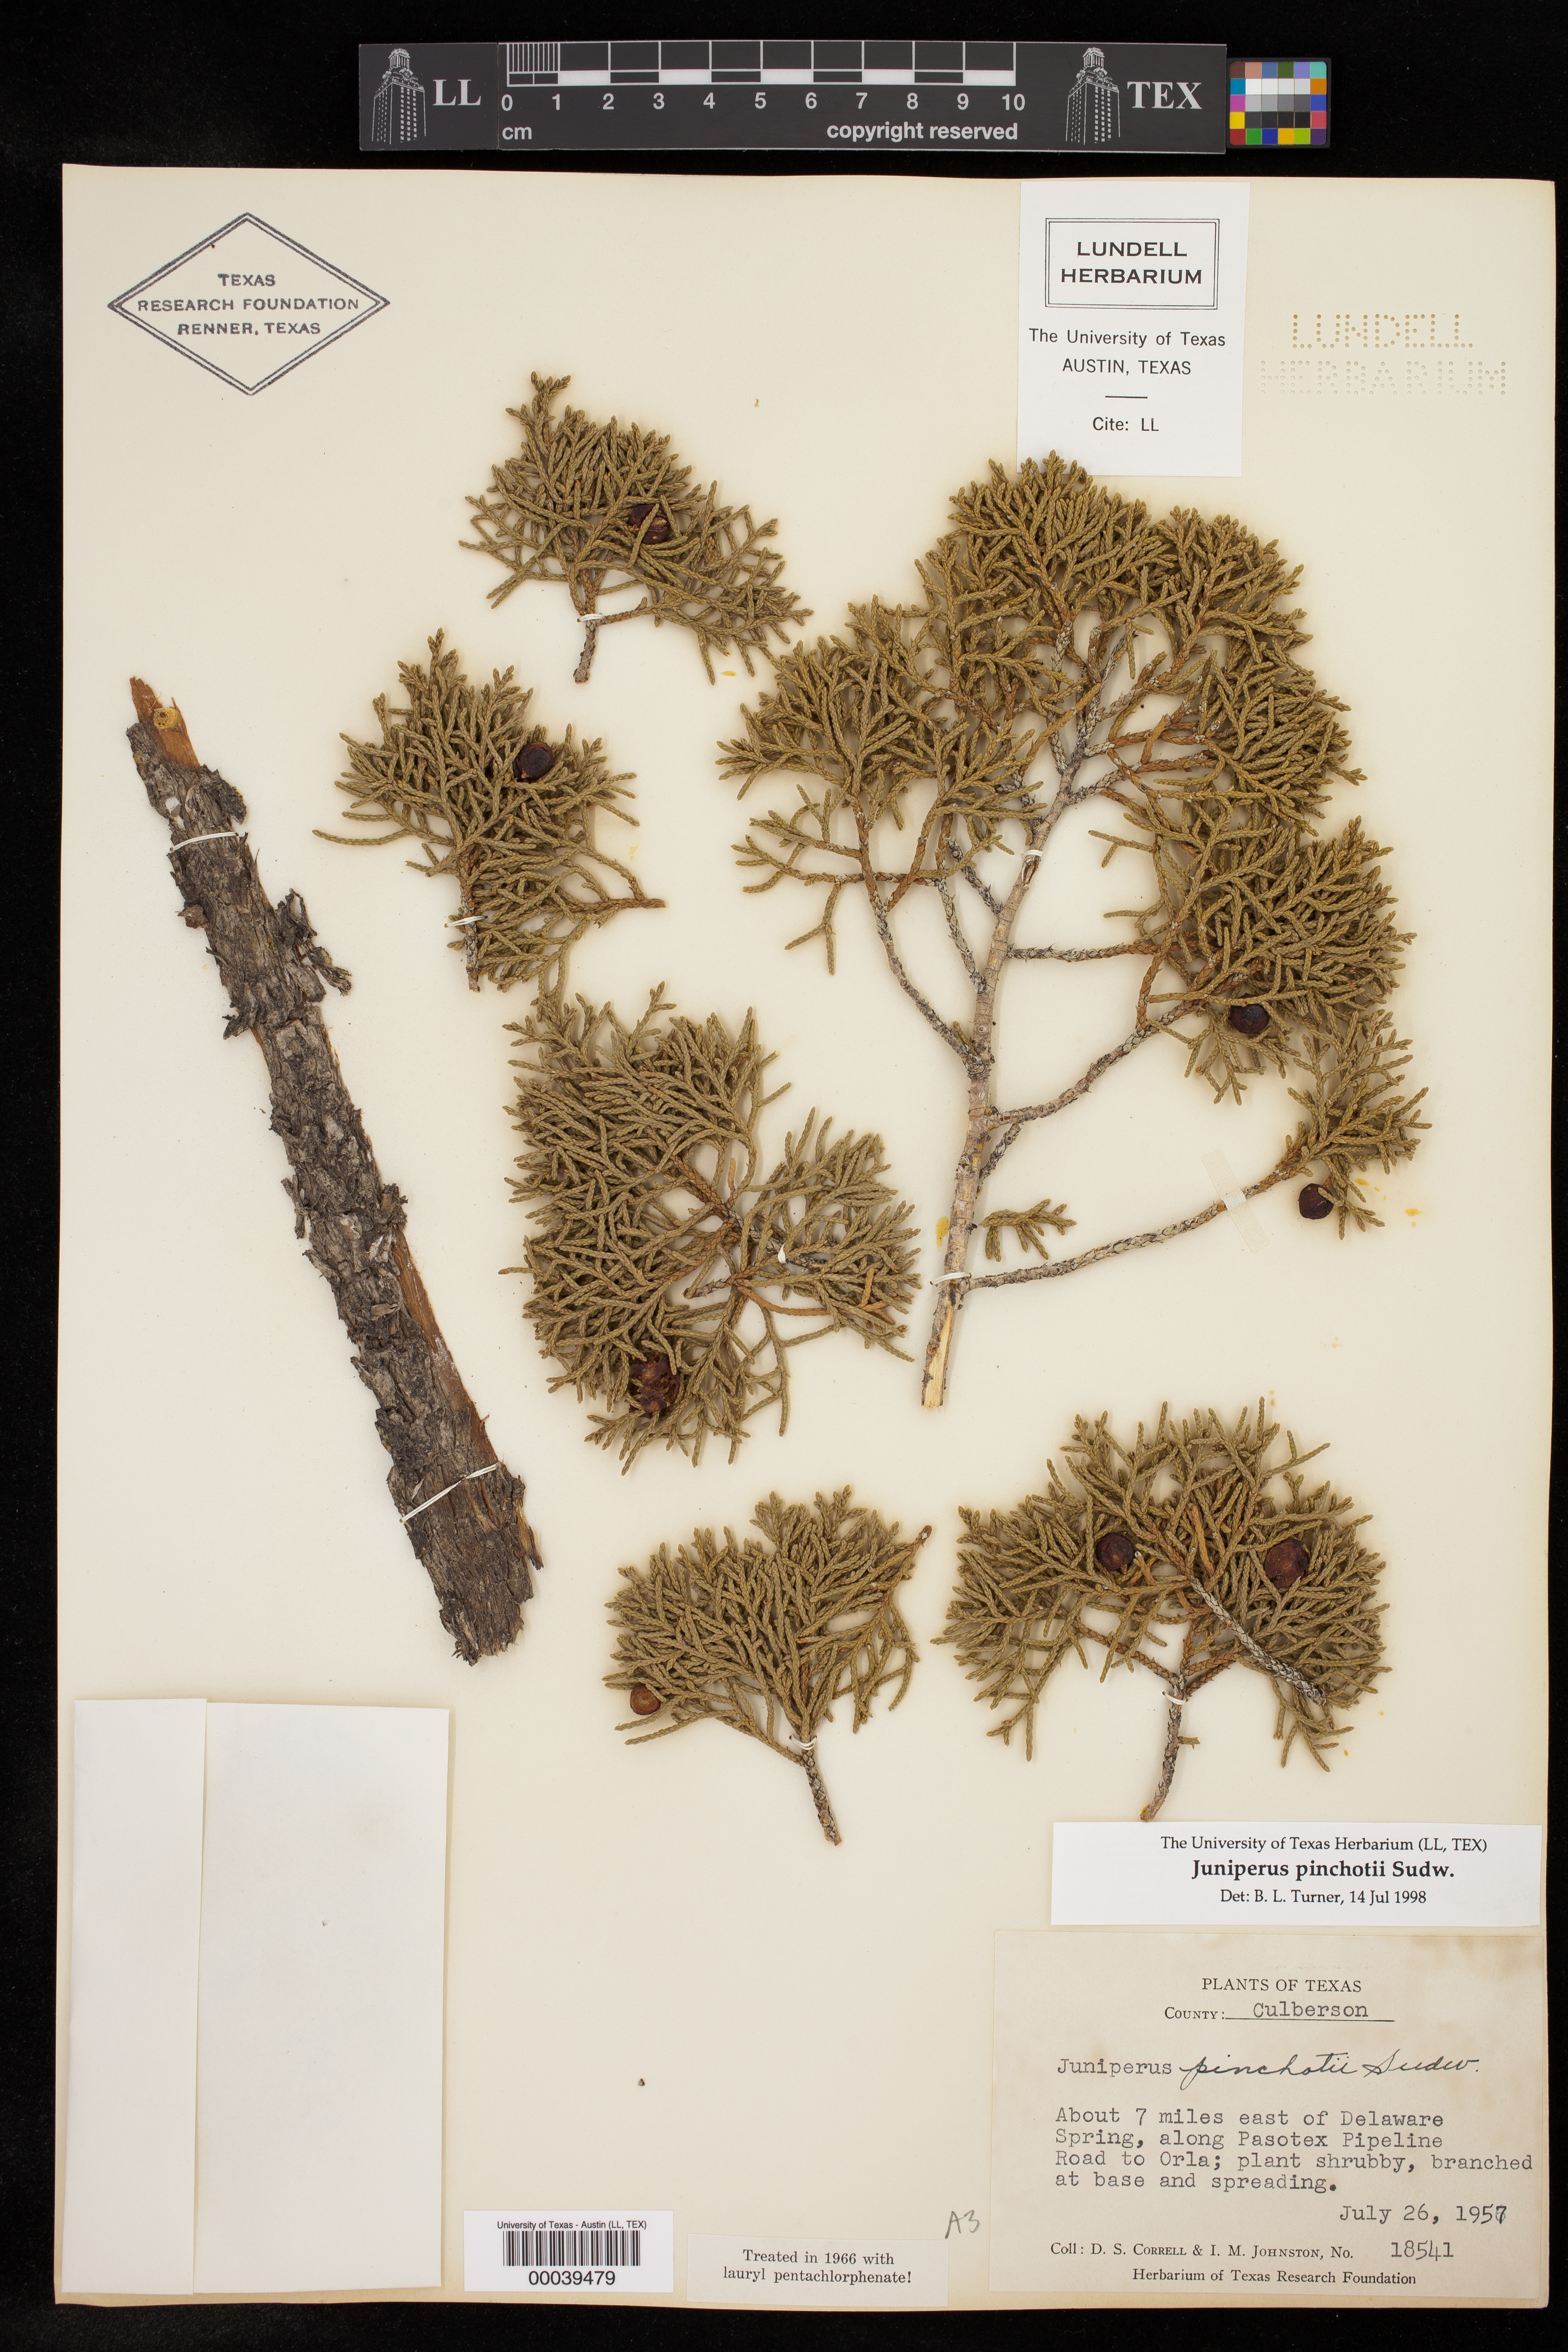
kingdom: Plantae
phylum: Tracheophyta
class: Pinopsida
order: Pinales
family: Cupressaceae
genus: Juniperus
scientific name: Juniperus pinchotii
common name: Pinchot juniper
